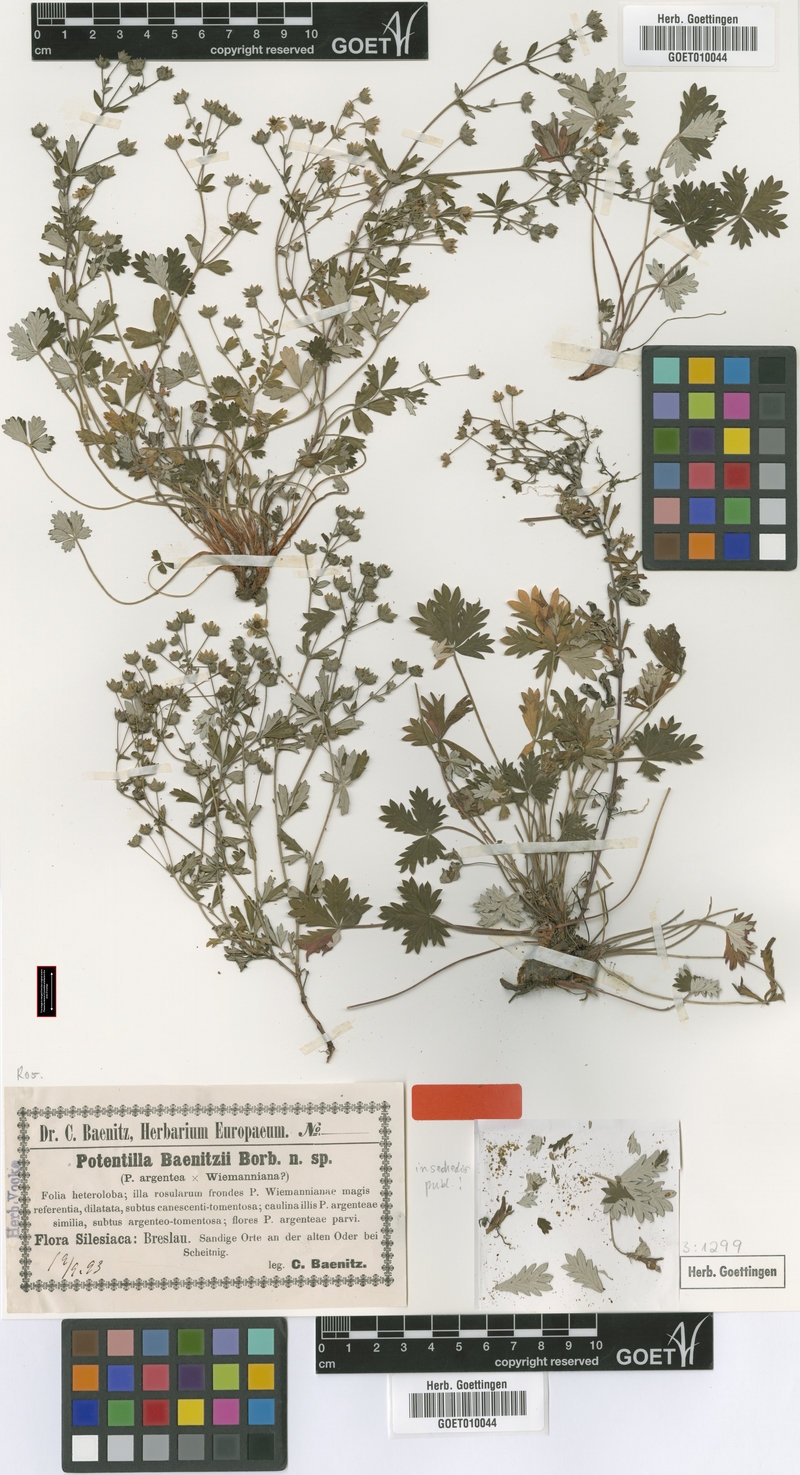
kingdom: Plantae
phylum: Tracheophyta
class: Magnoliopsida
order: Rosales
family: Rosaceae
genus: Potentilla
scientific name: Potentilla argentea
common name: Hoary cinquefoil
